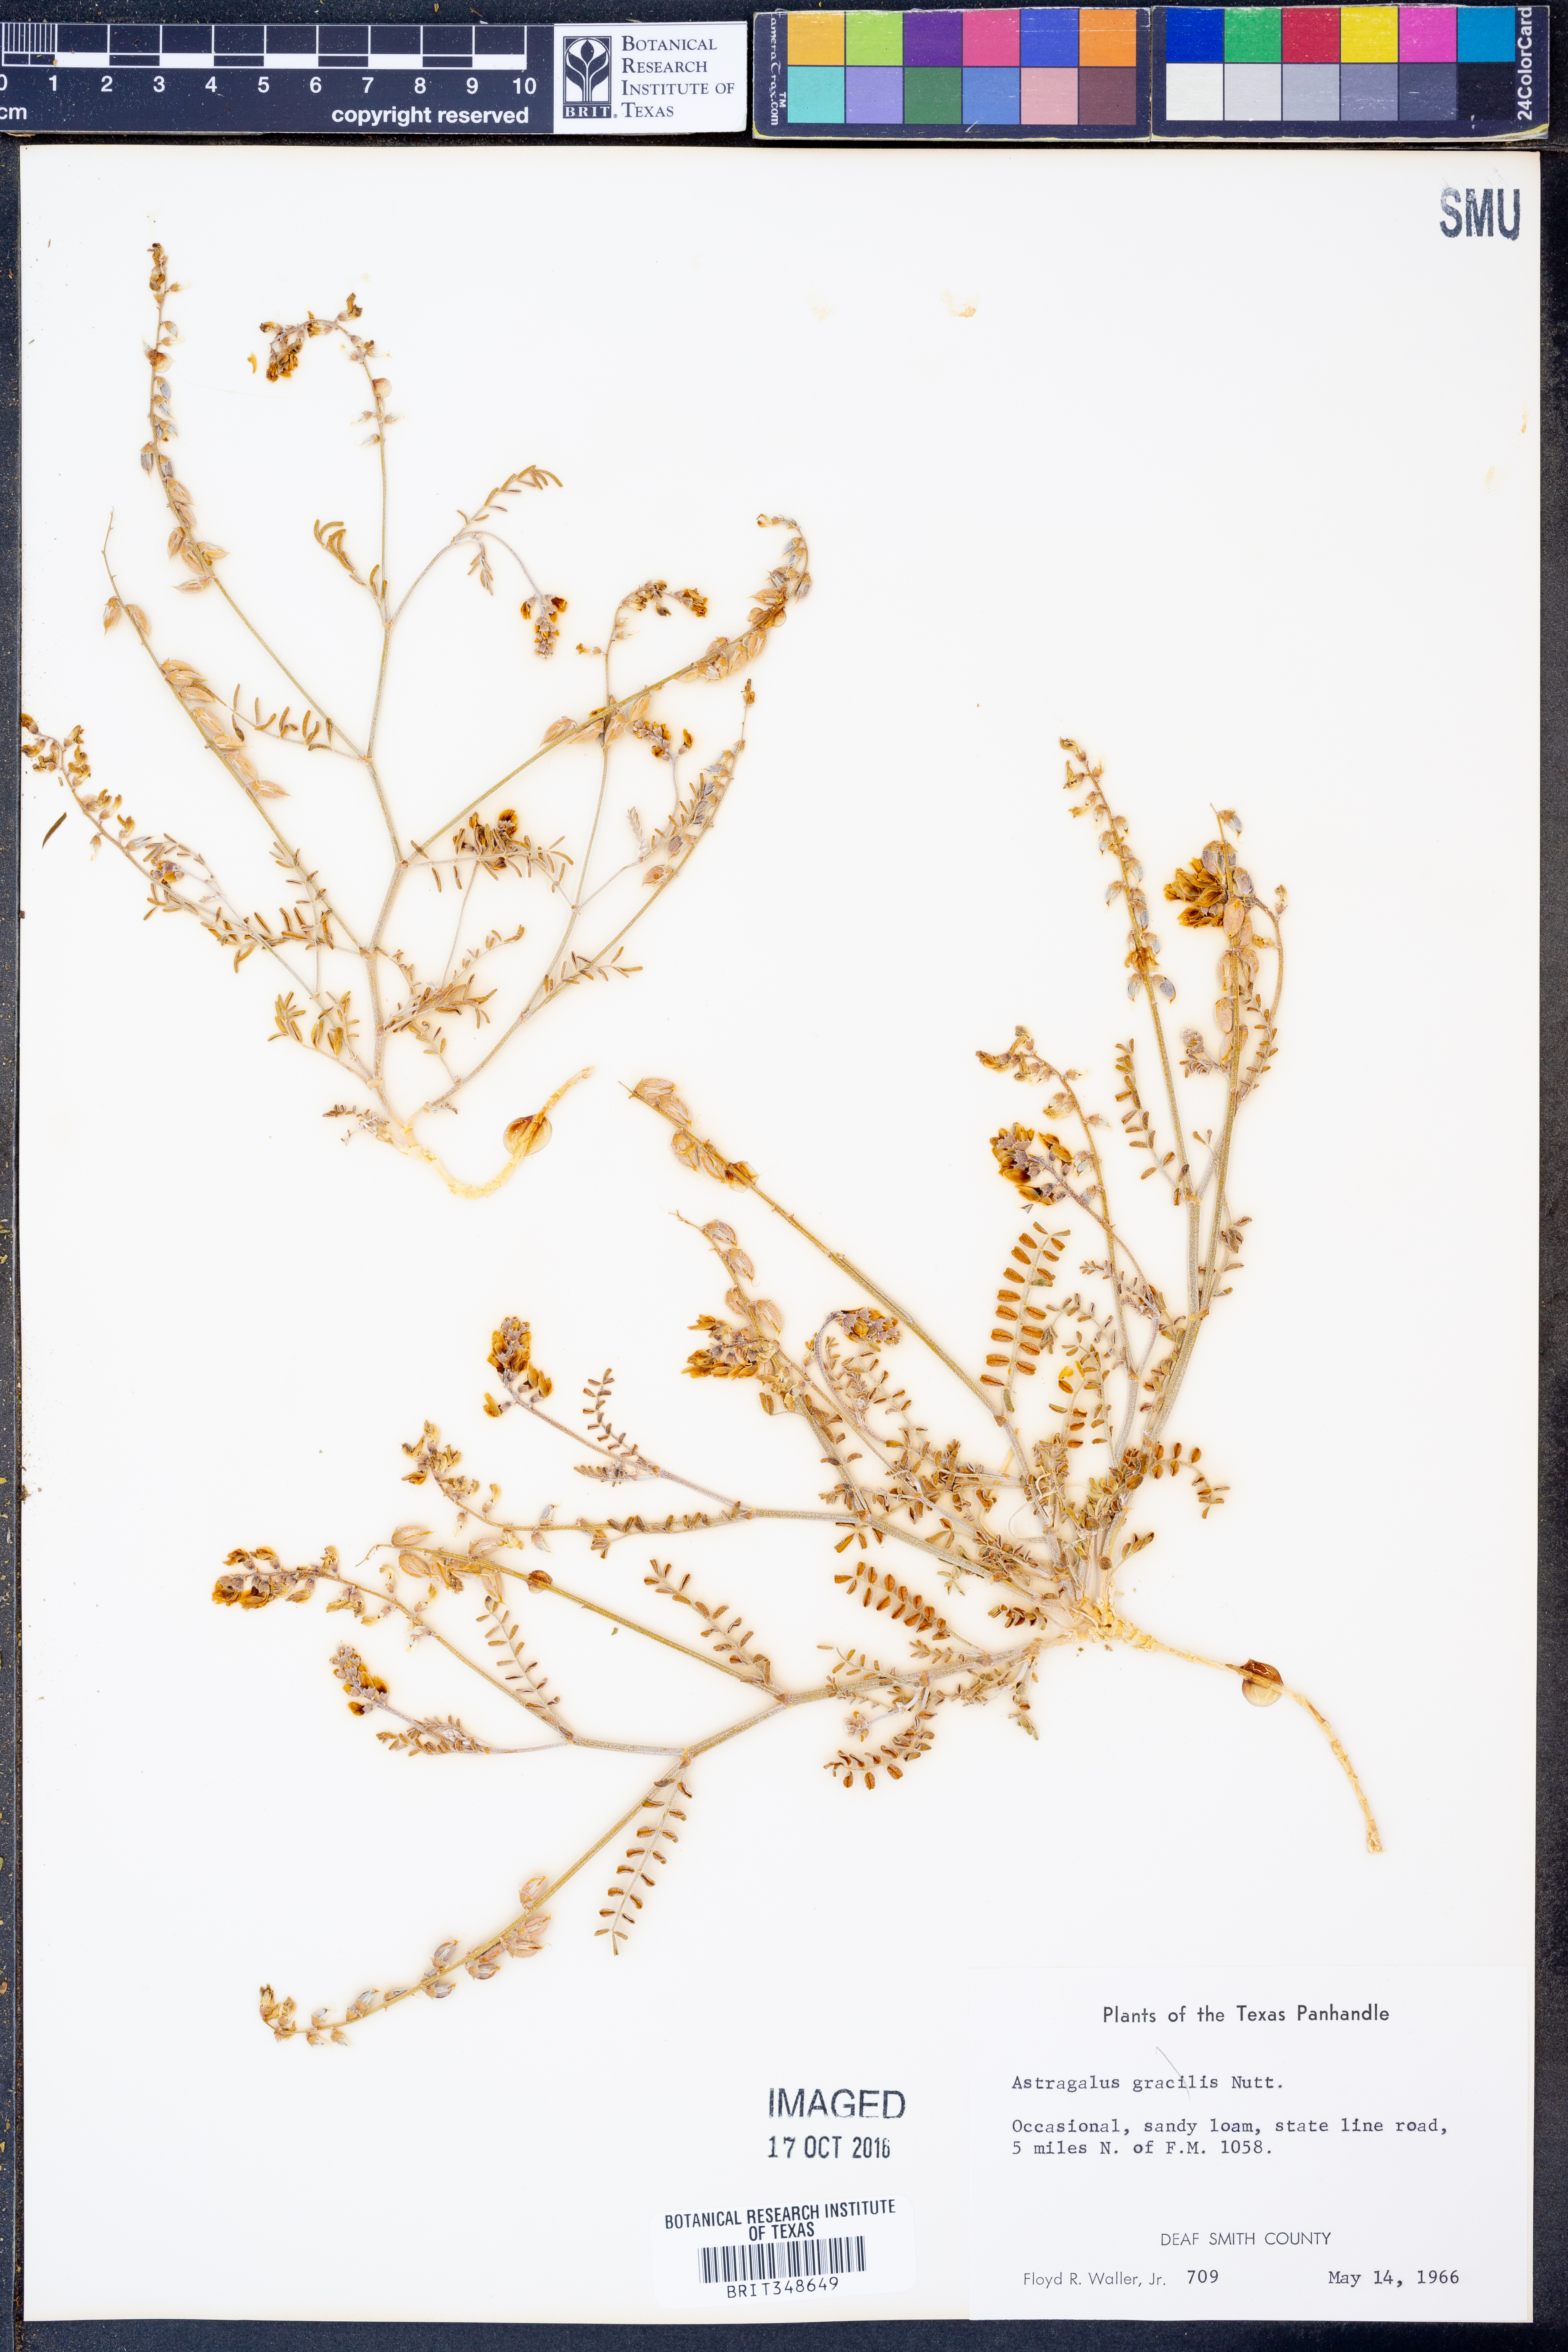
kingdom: Plantae
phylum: Tracheophyta
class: Magnoliopsida
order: Fabales
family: Fabaceae
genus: Astragalus
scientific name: Astragalus gracilis
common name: Slender milk-vetch
